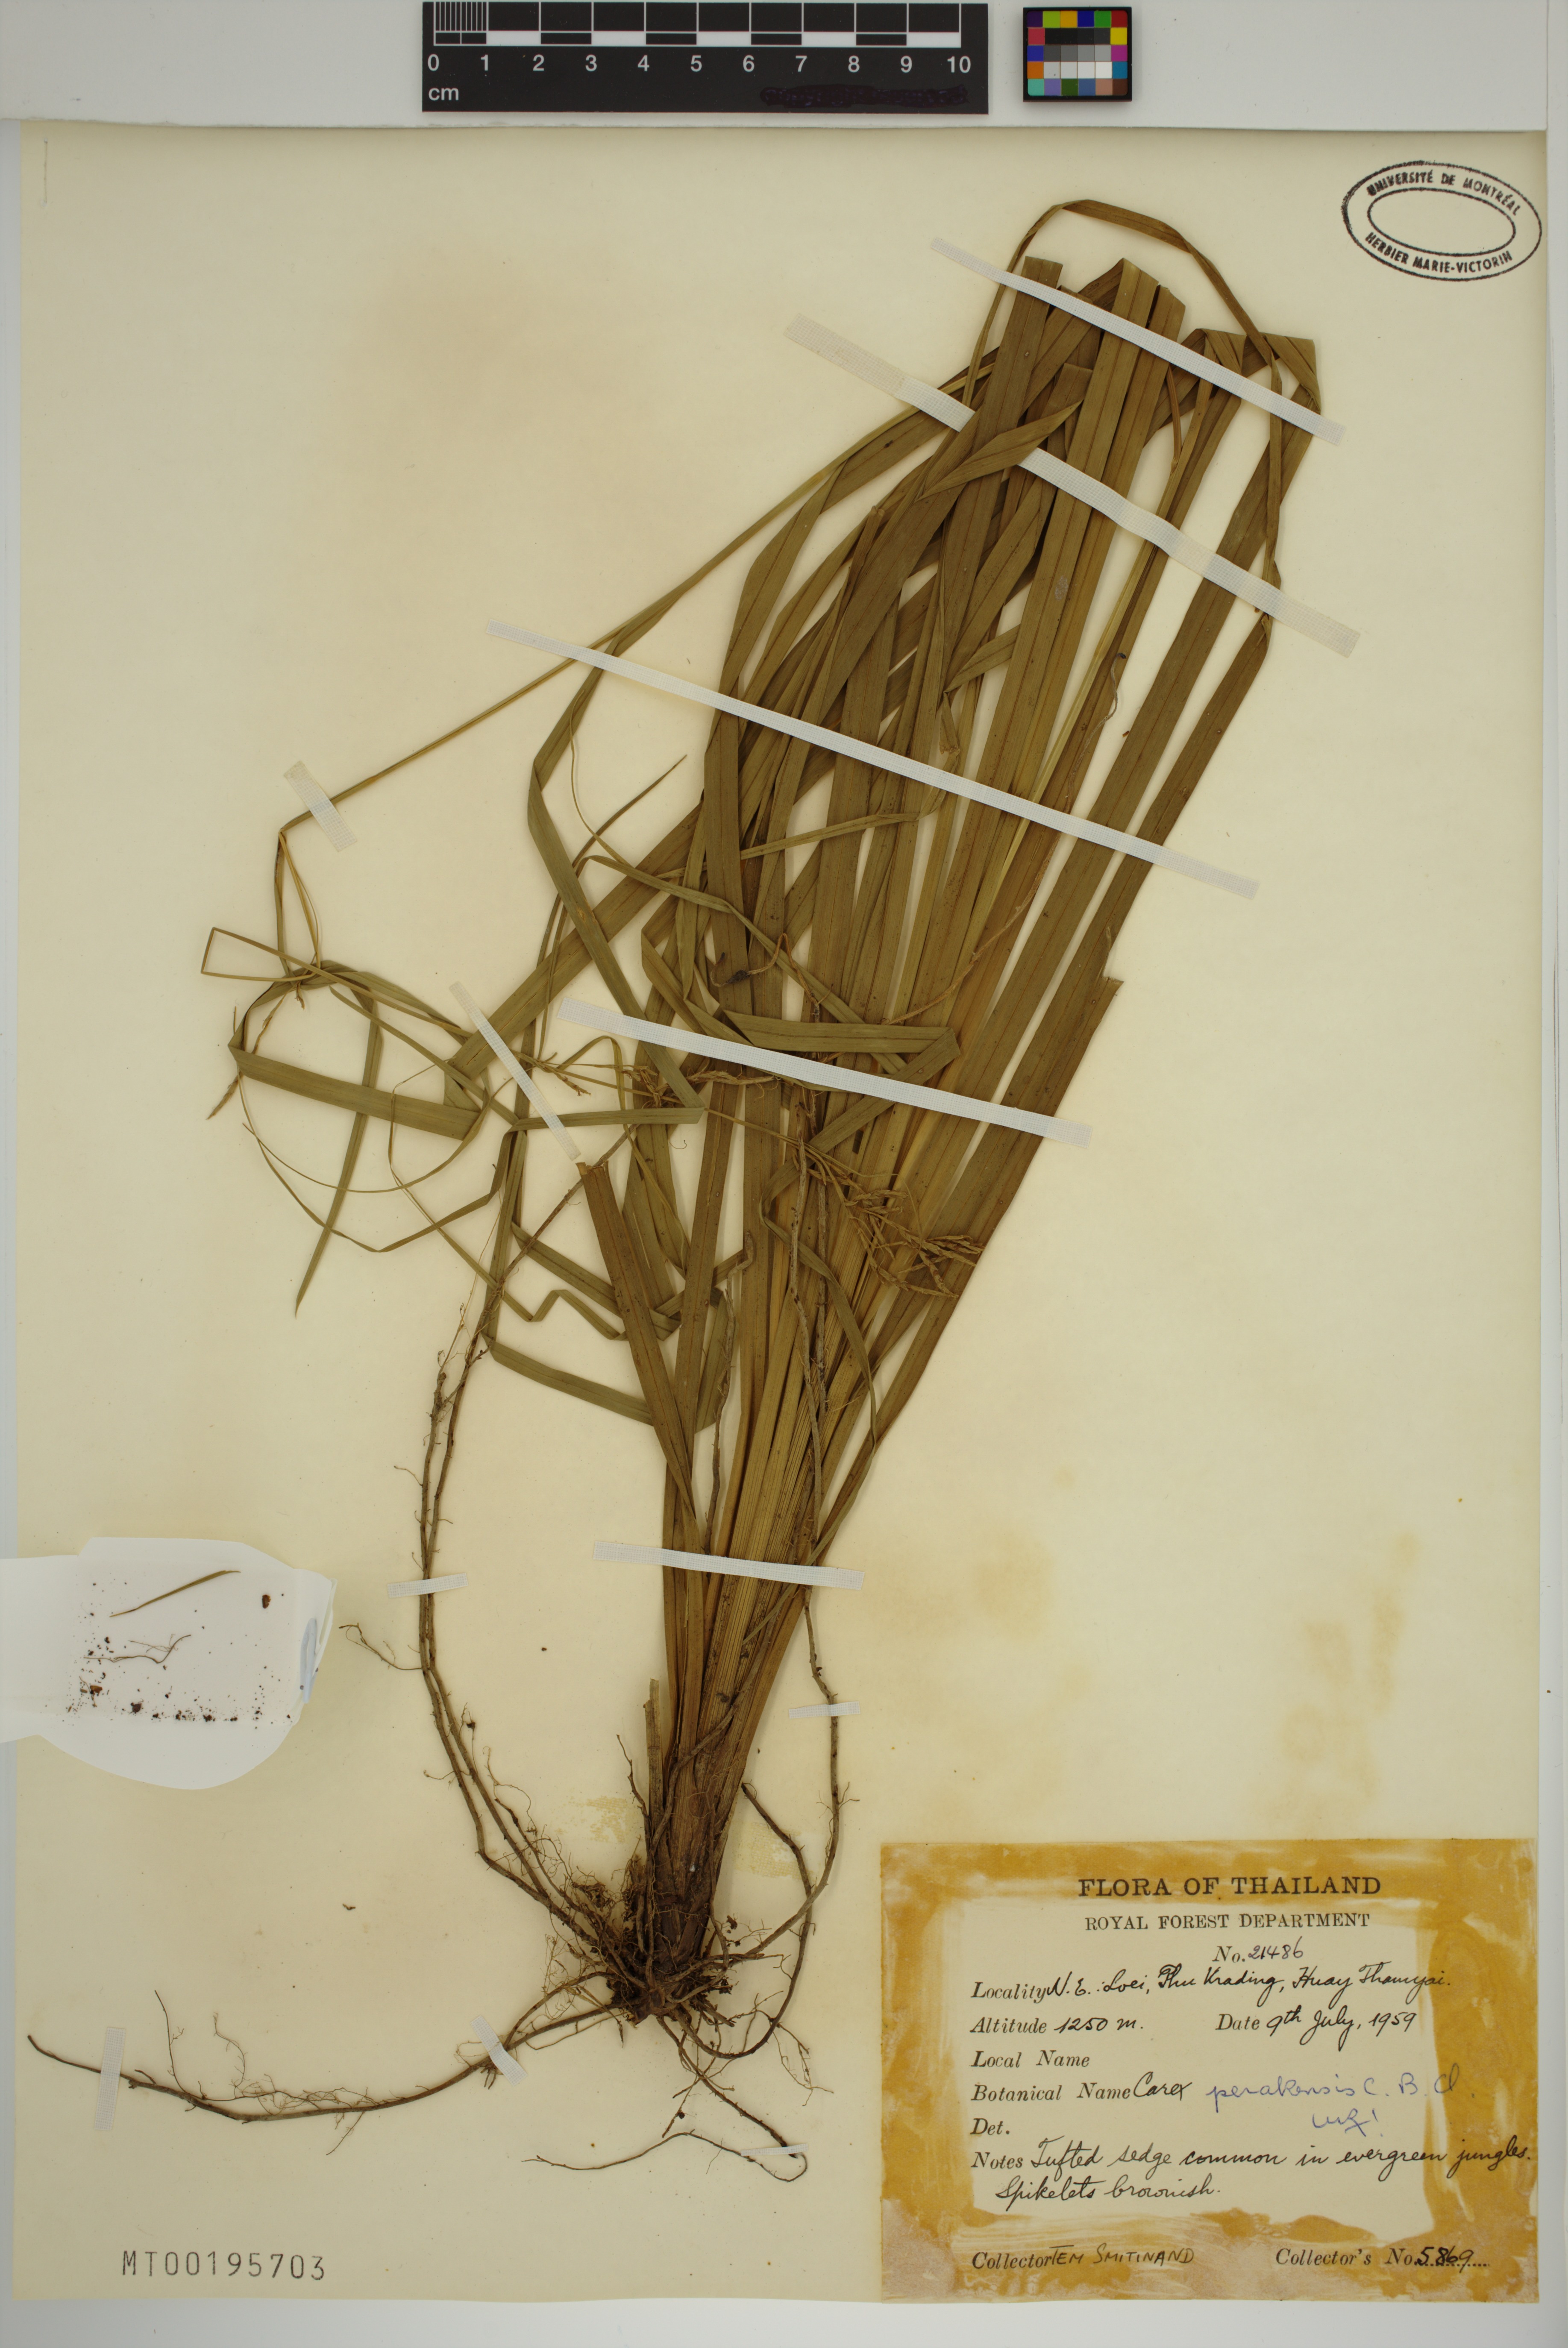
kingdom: Plantae
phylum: Tracheophyta
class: Liliopsida
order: Poales
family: Cyperaceae
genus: Carex
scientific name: Carex perakensis
